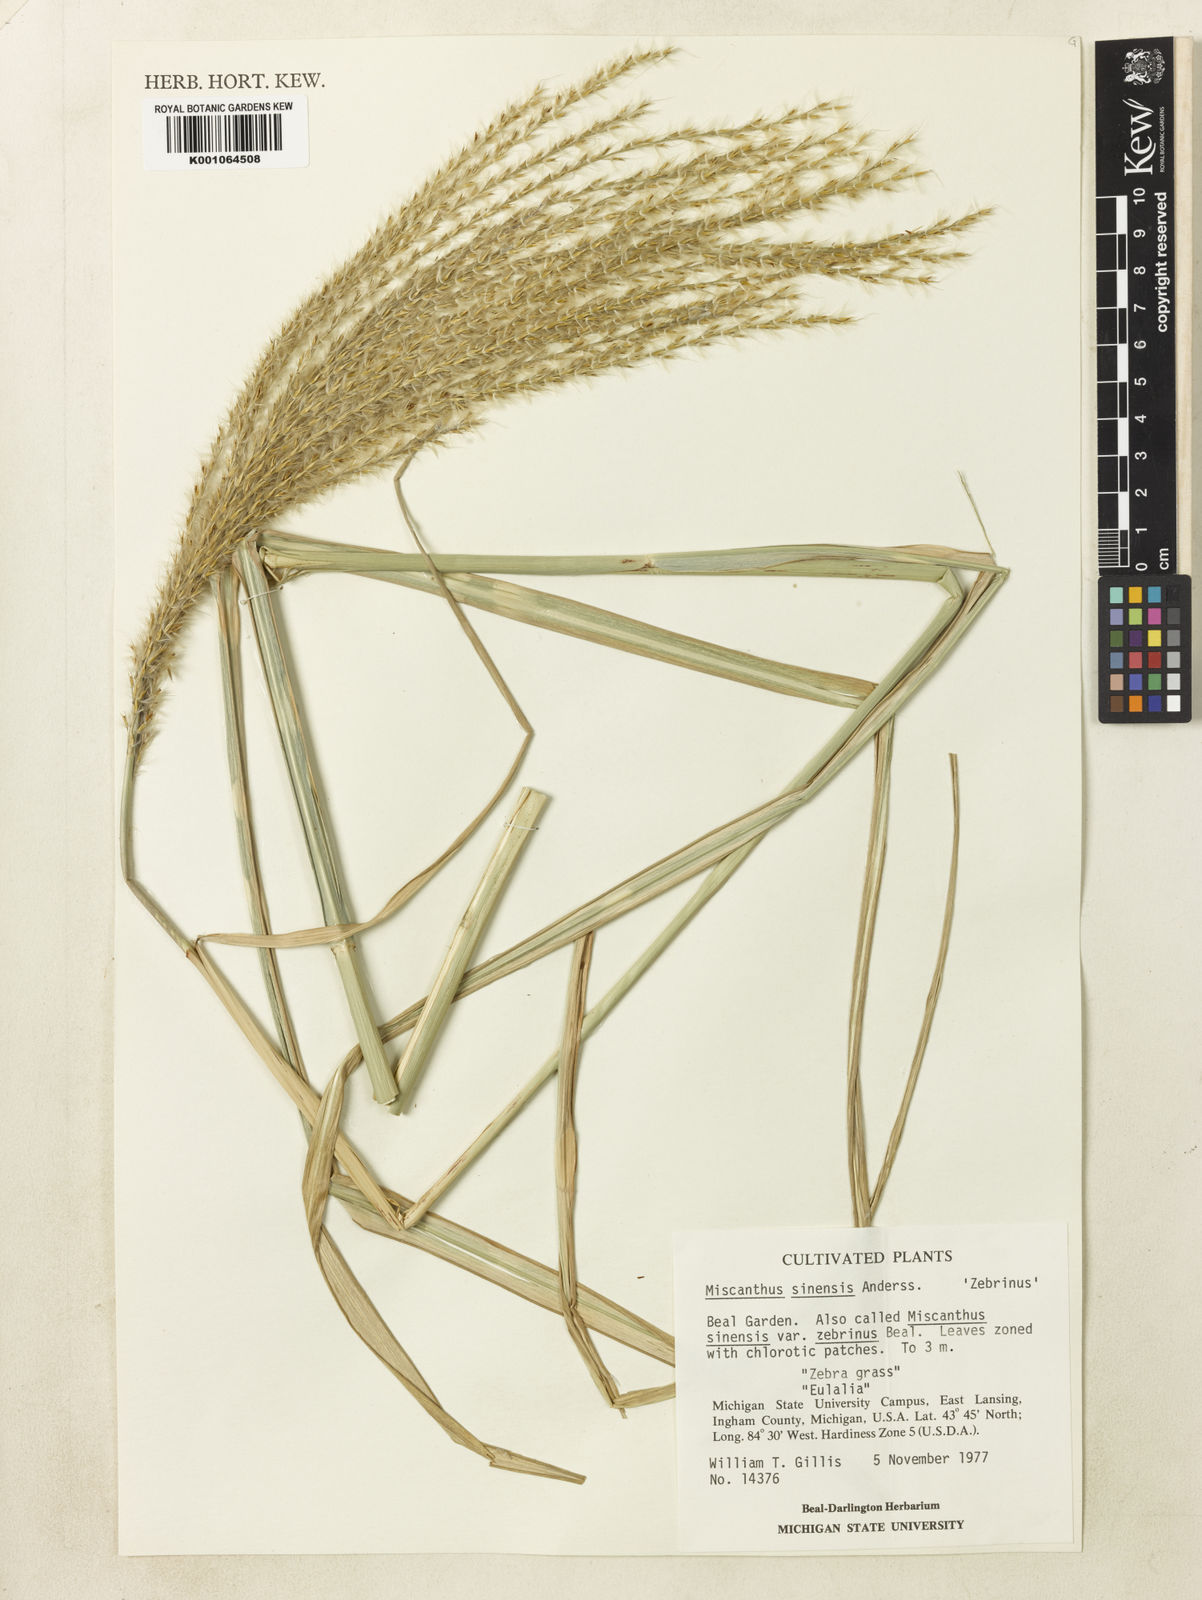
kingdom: Plantae
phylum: Tracheophyta
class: Liliopsida
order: Poales
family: Poaceae
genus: Miscanthus
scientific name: Miscanthus sinensis
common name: Chinese silvergrass
